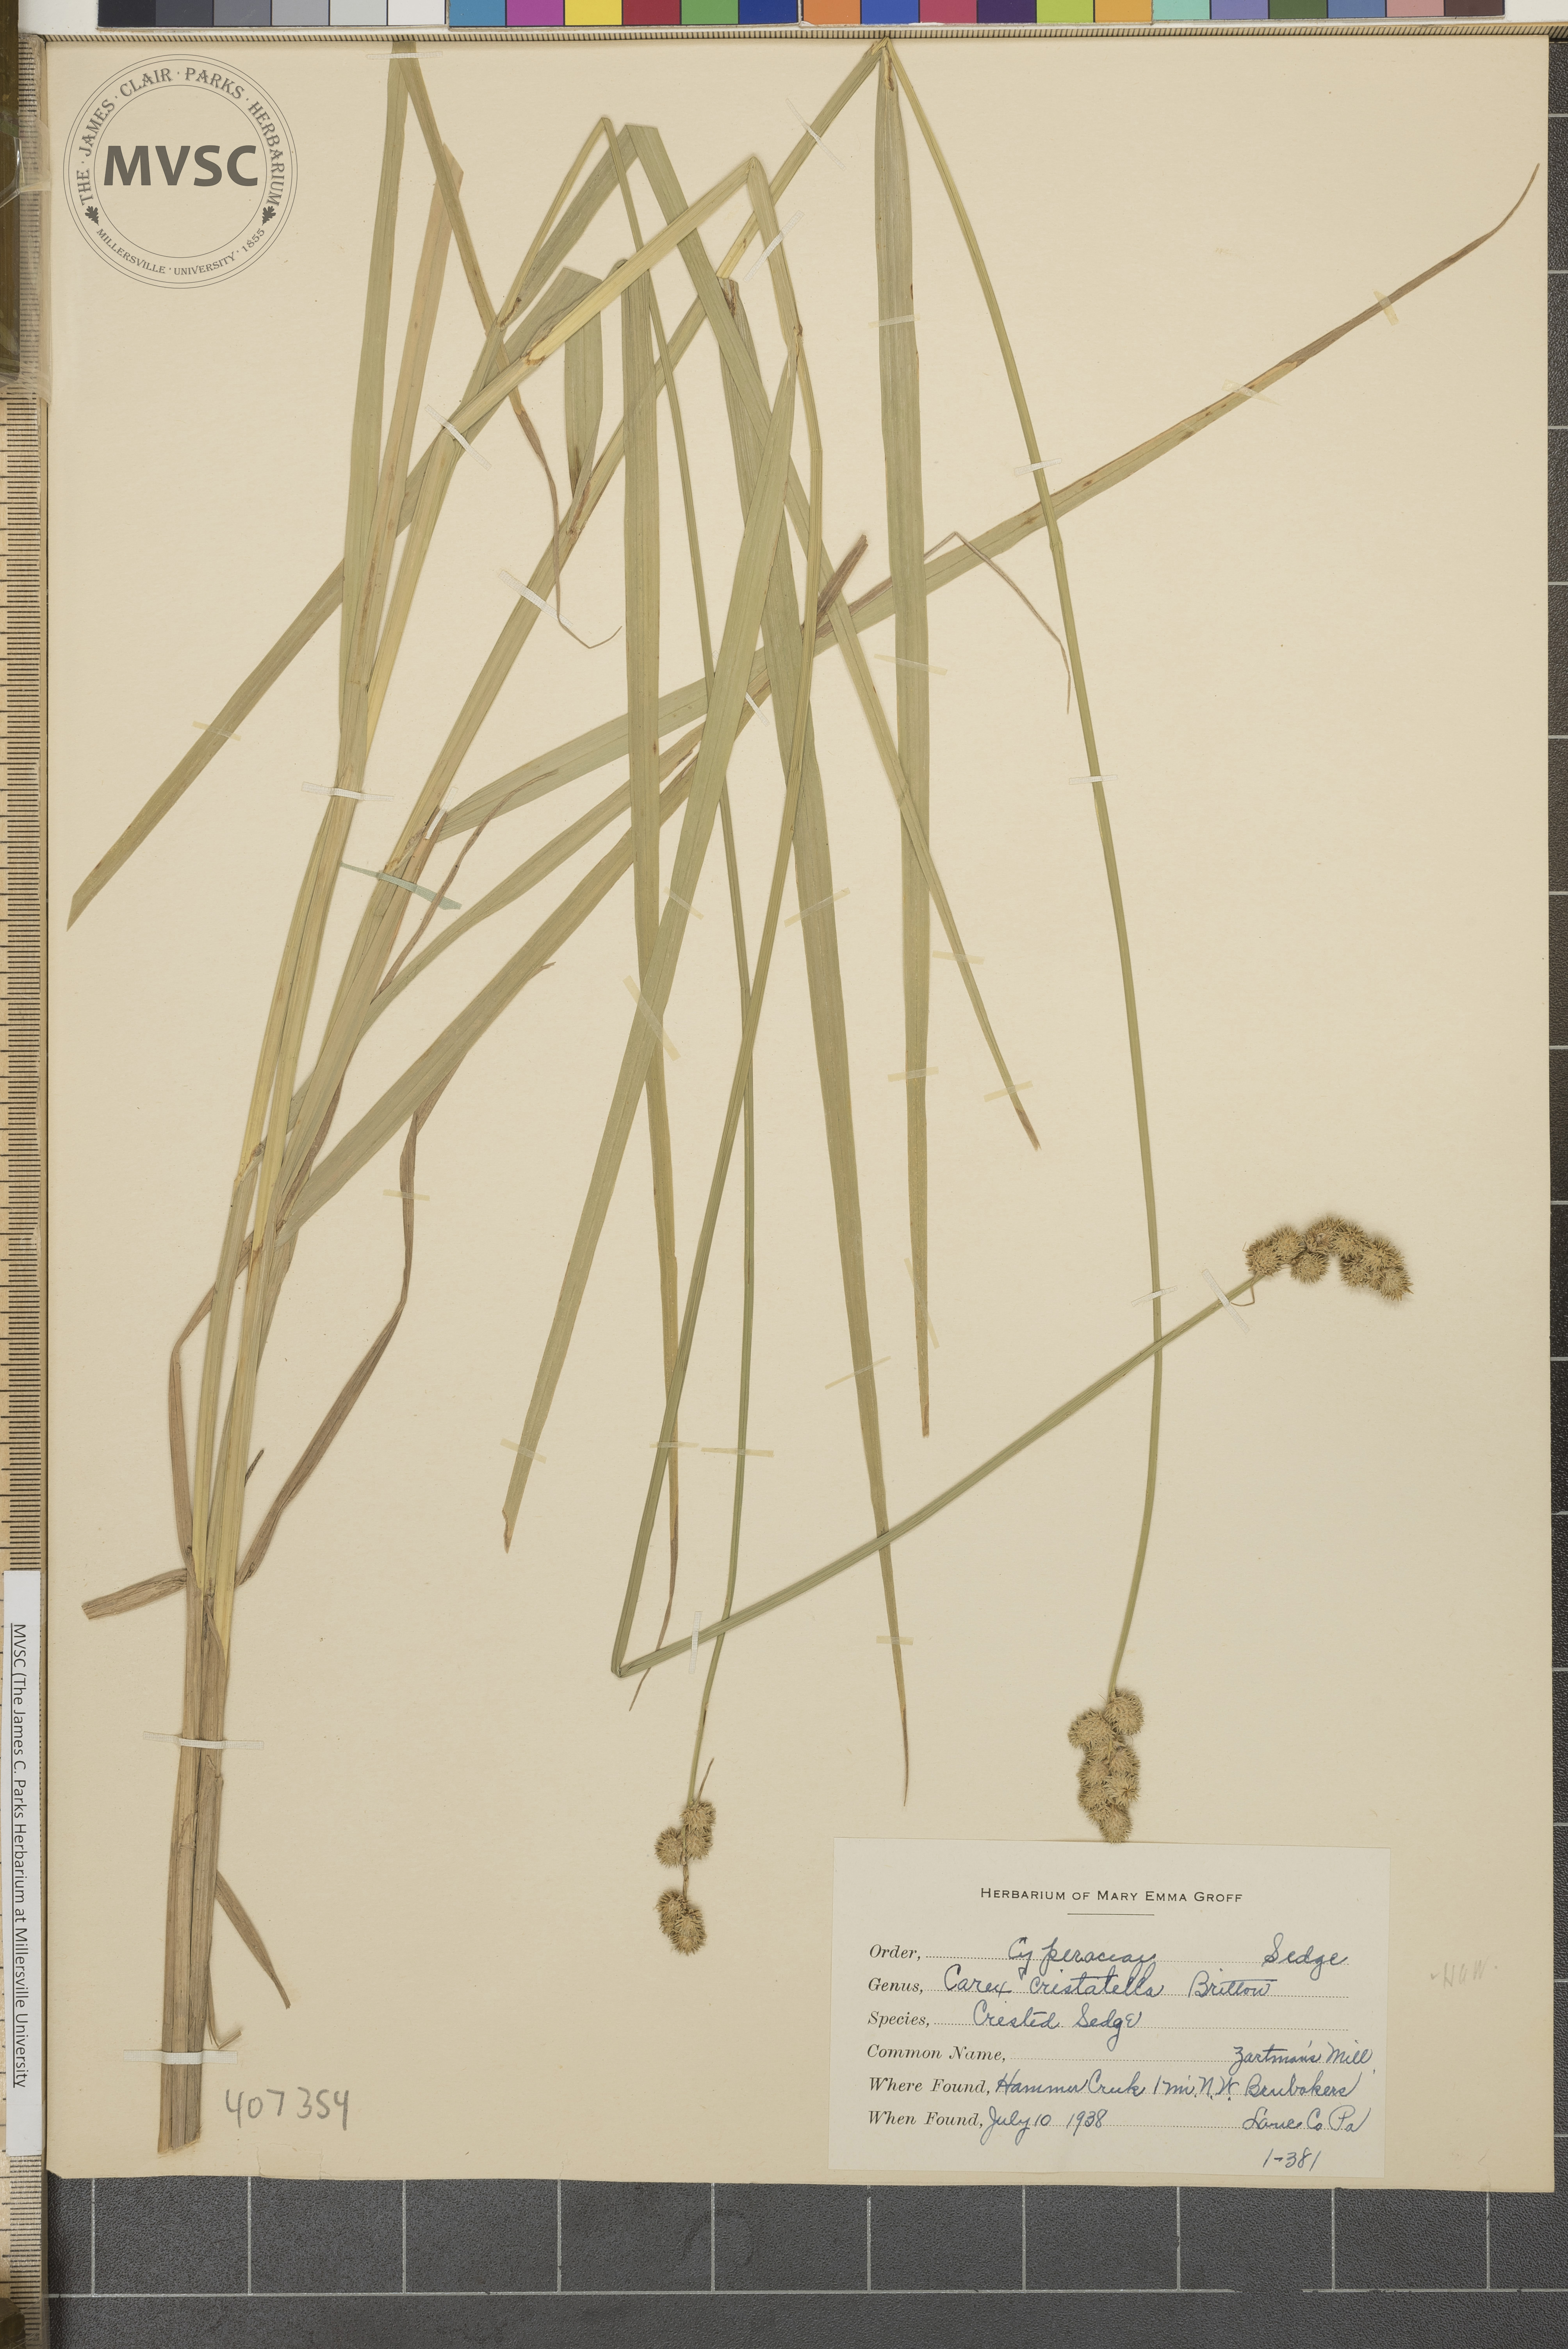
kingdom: Plantae
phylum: Tracheophyta
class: Liliopsida
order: Poales
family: Cyperaceae
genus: Carex
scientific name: Carex cristatella
